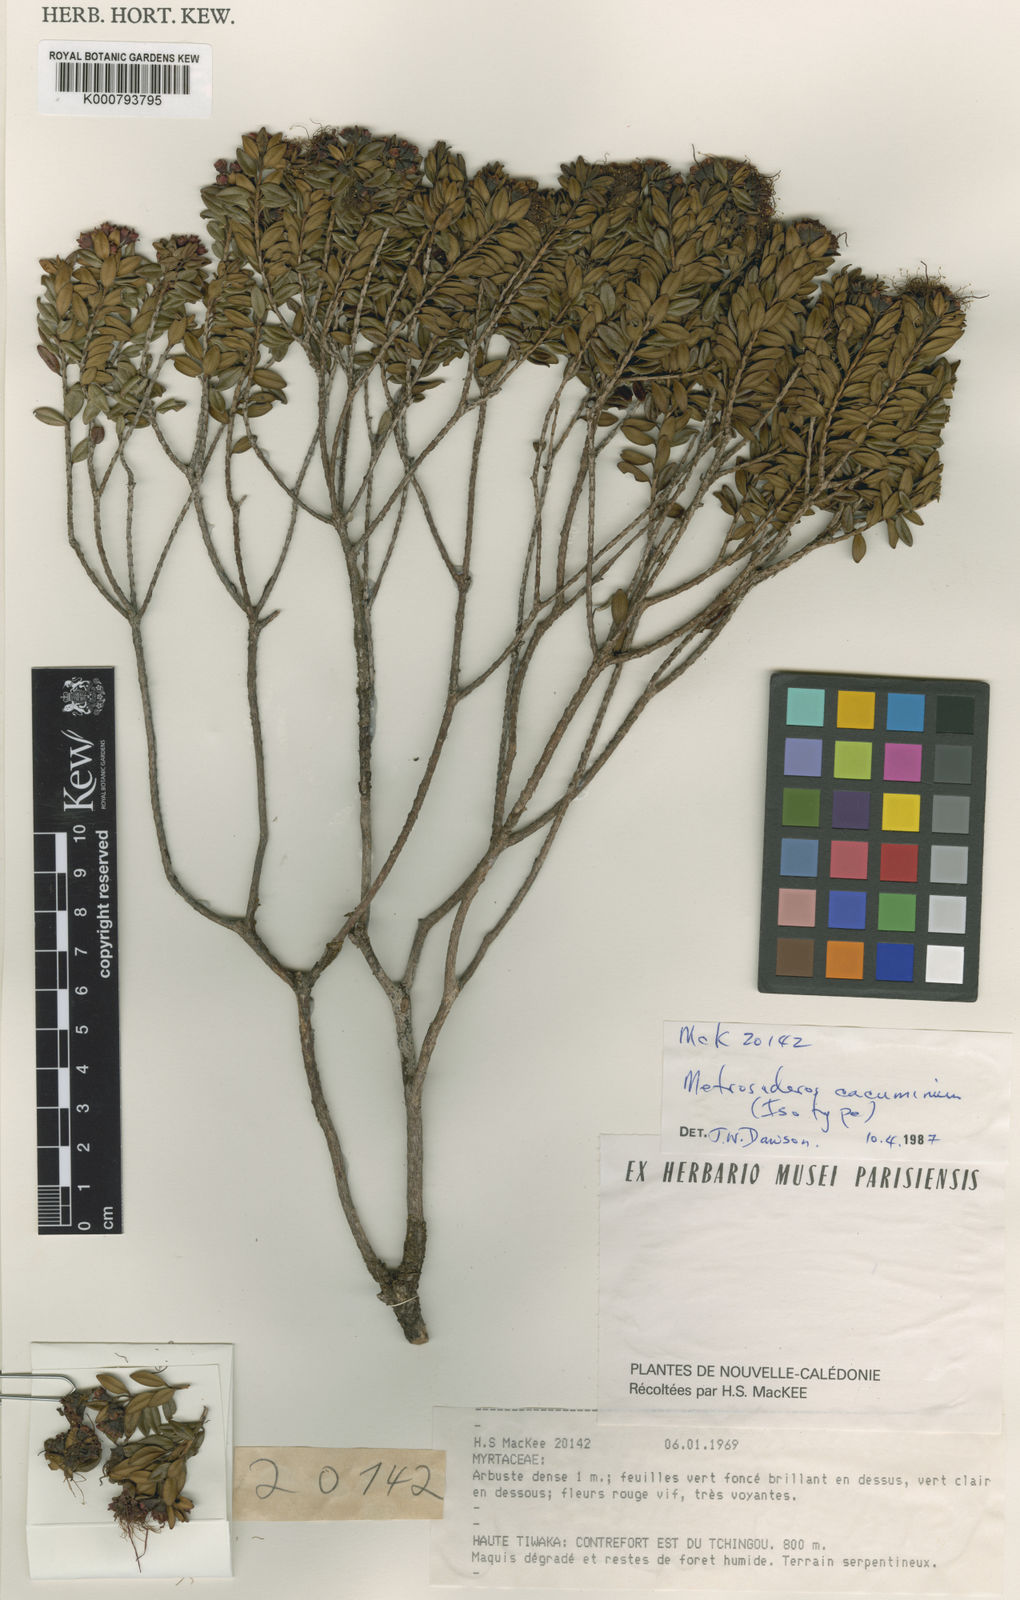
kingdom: Plantae
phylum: Tracheophyta
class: Magnoliopsida
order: Myrtales
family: Myrtaceae
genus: Metrosideros
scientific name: Metrosideros cacuminum
